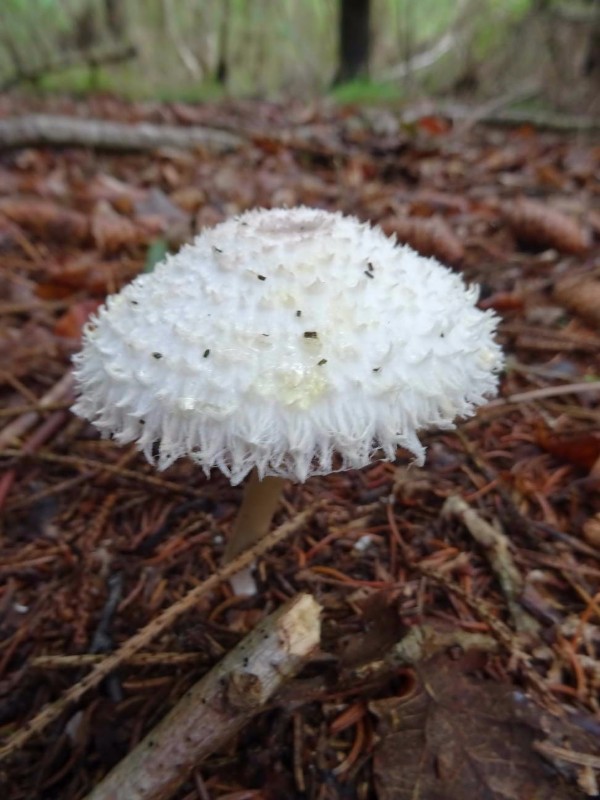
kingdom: Fungi
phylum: Basidiomycota
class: Agaricomycetes
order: Agaricales
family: Agaricaceae
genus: Leucoagaricus
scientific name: Leucoagaricus nympharum
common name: gran-silkehat
